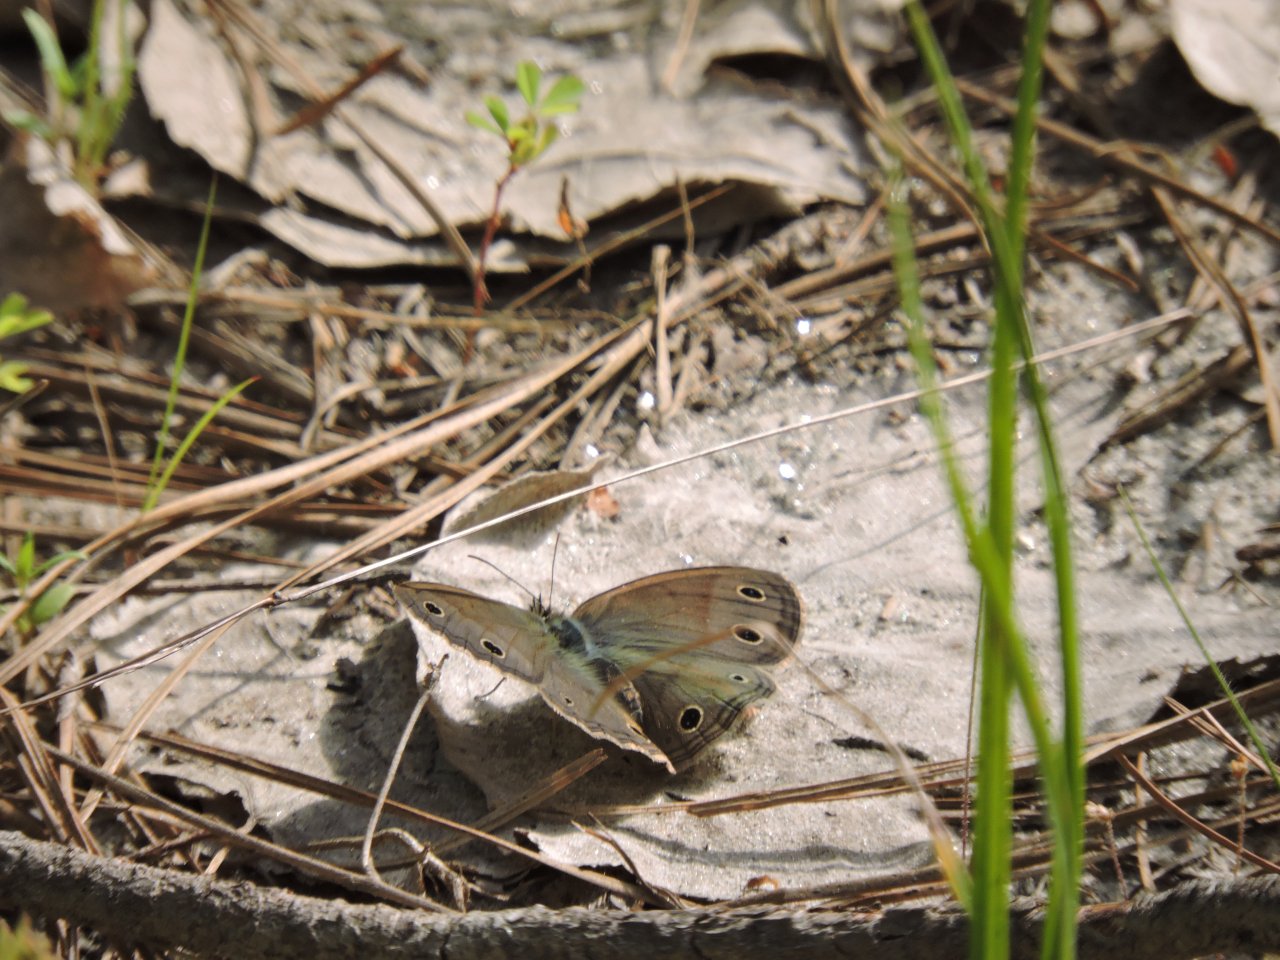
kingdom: Animalia
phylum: Arthropoda
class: Insecta
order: Lepidoptera
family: Nymphalidae
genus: Euptychia
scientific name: Euptychia cymela
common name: Little Wood Satyr
